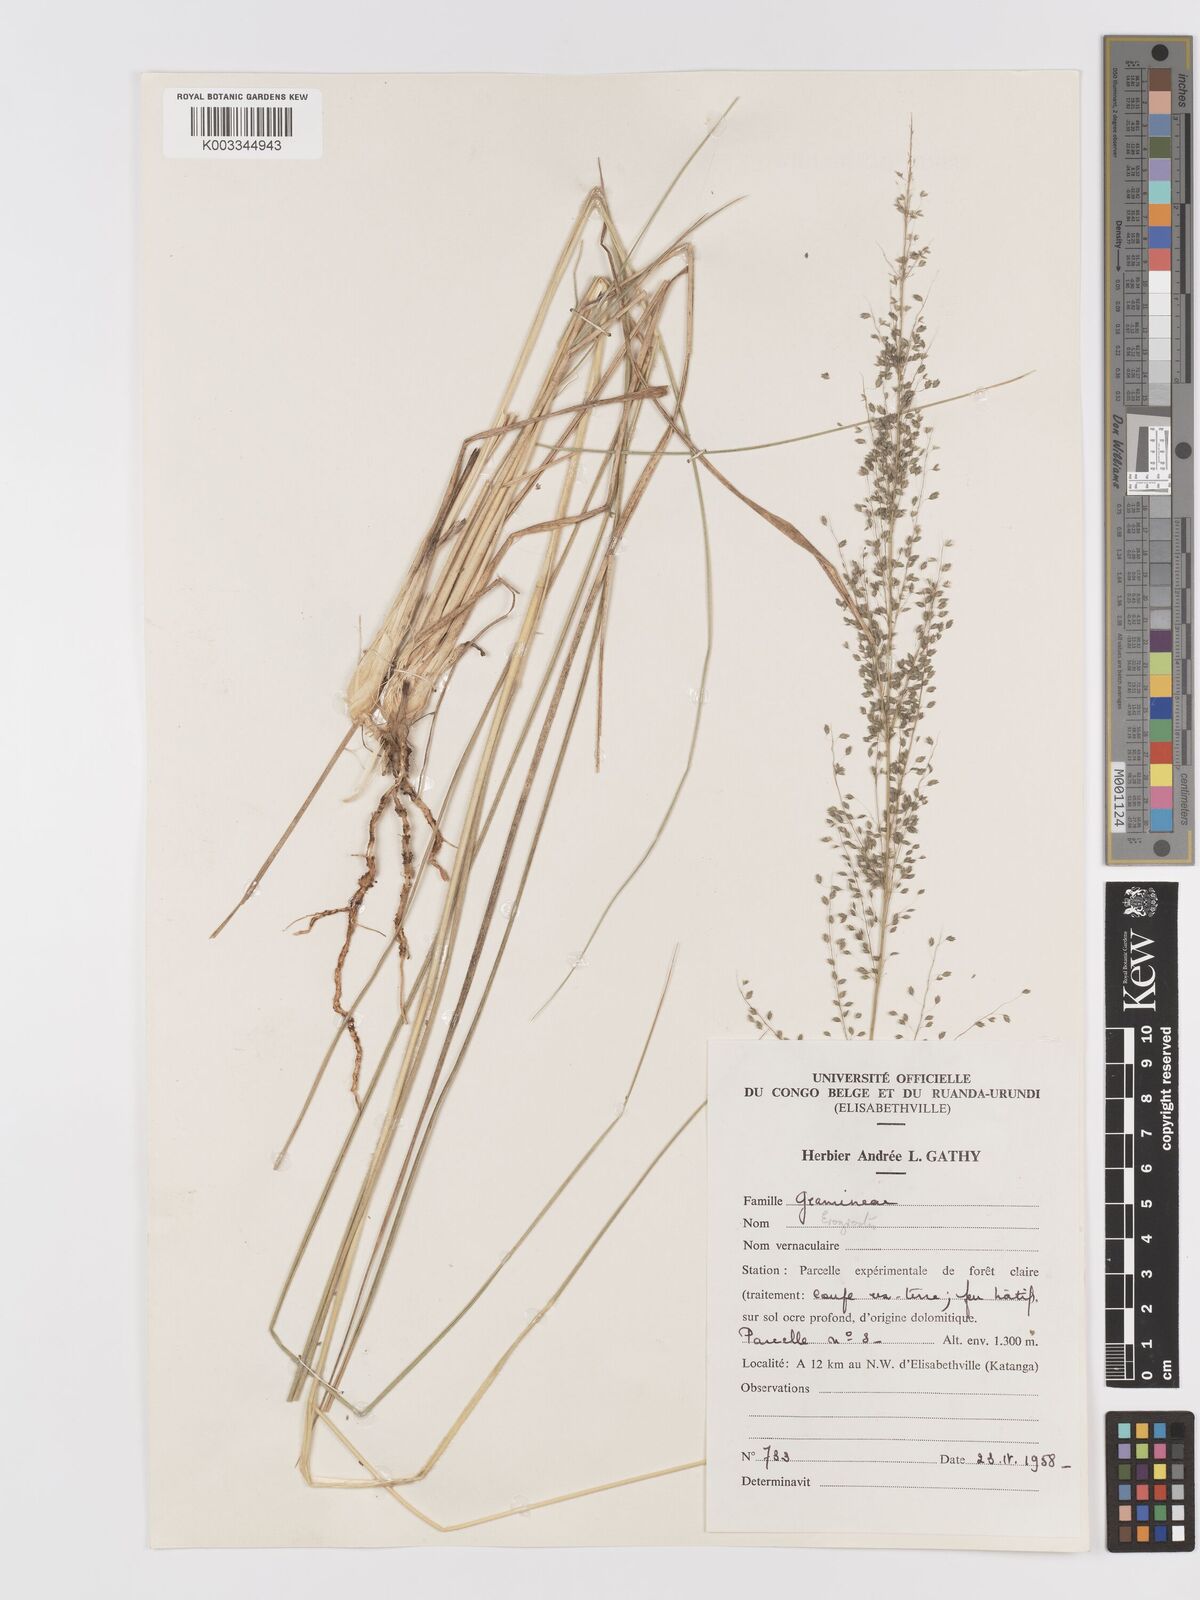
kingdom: Plantae
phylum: Tracheophyta
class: Liliopsida
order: Poales
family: Poaceae
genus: Eragrostis
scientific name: Eragrostis mollior
